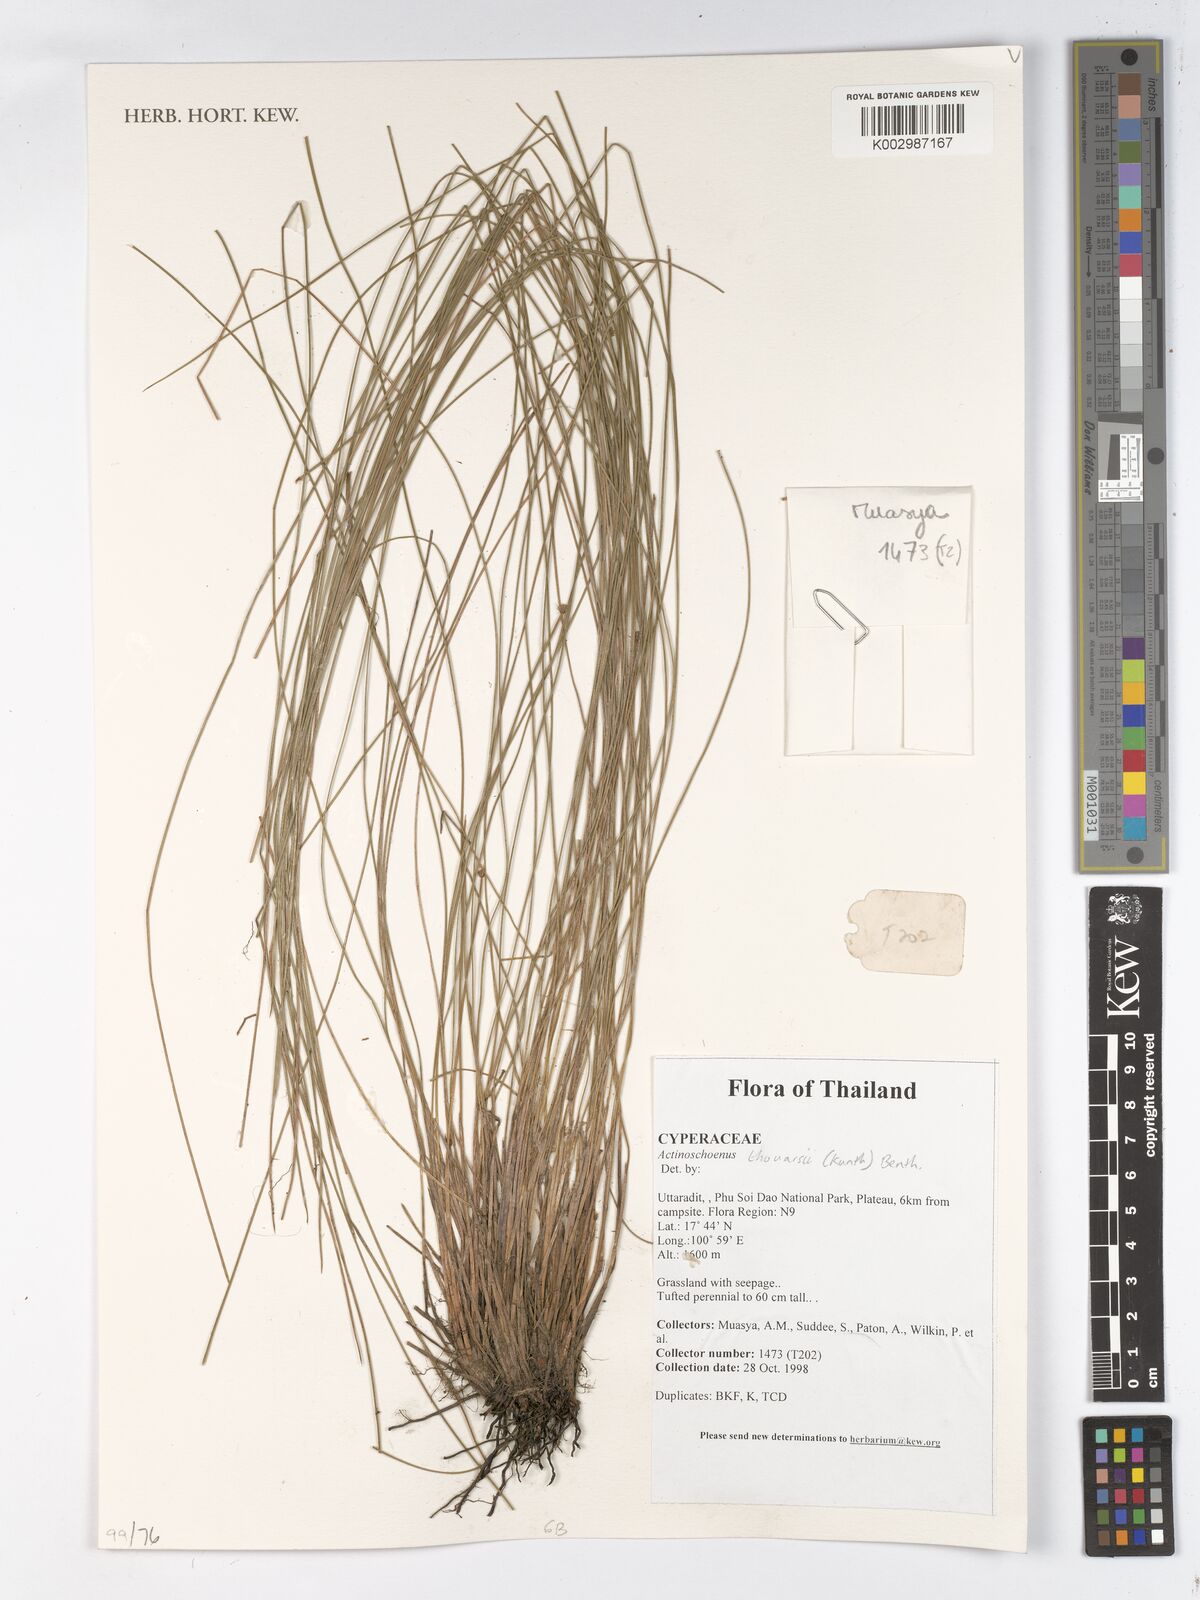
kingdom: Plantae
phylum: Tracheophyta
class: Liliopsida
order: Poales
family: Cyperaceae
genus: Actinoschoenus
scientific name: Actinoschoenus aphyllus
